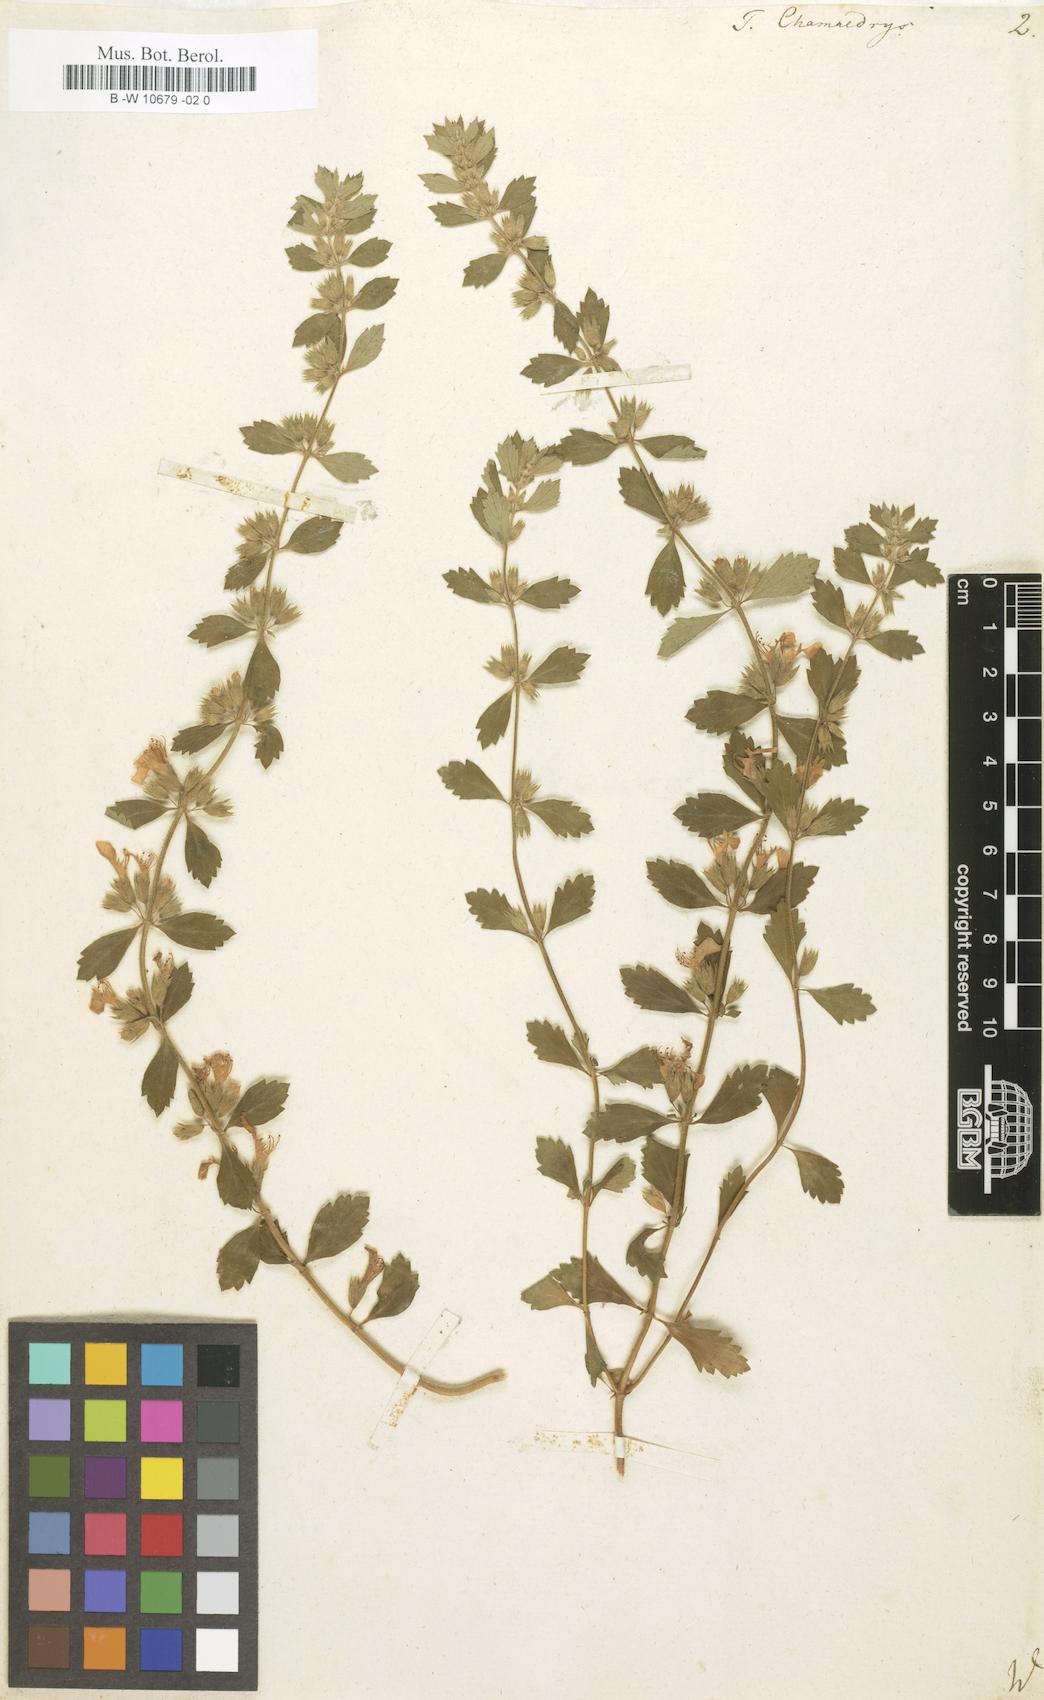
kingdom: Plantae
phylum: Tracheophyta
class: Magnoliopsida
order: Lamiales
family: Lamiaceae
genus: Teucrium
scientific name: Teucrium chamaedrys
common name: Wall germander
